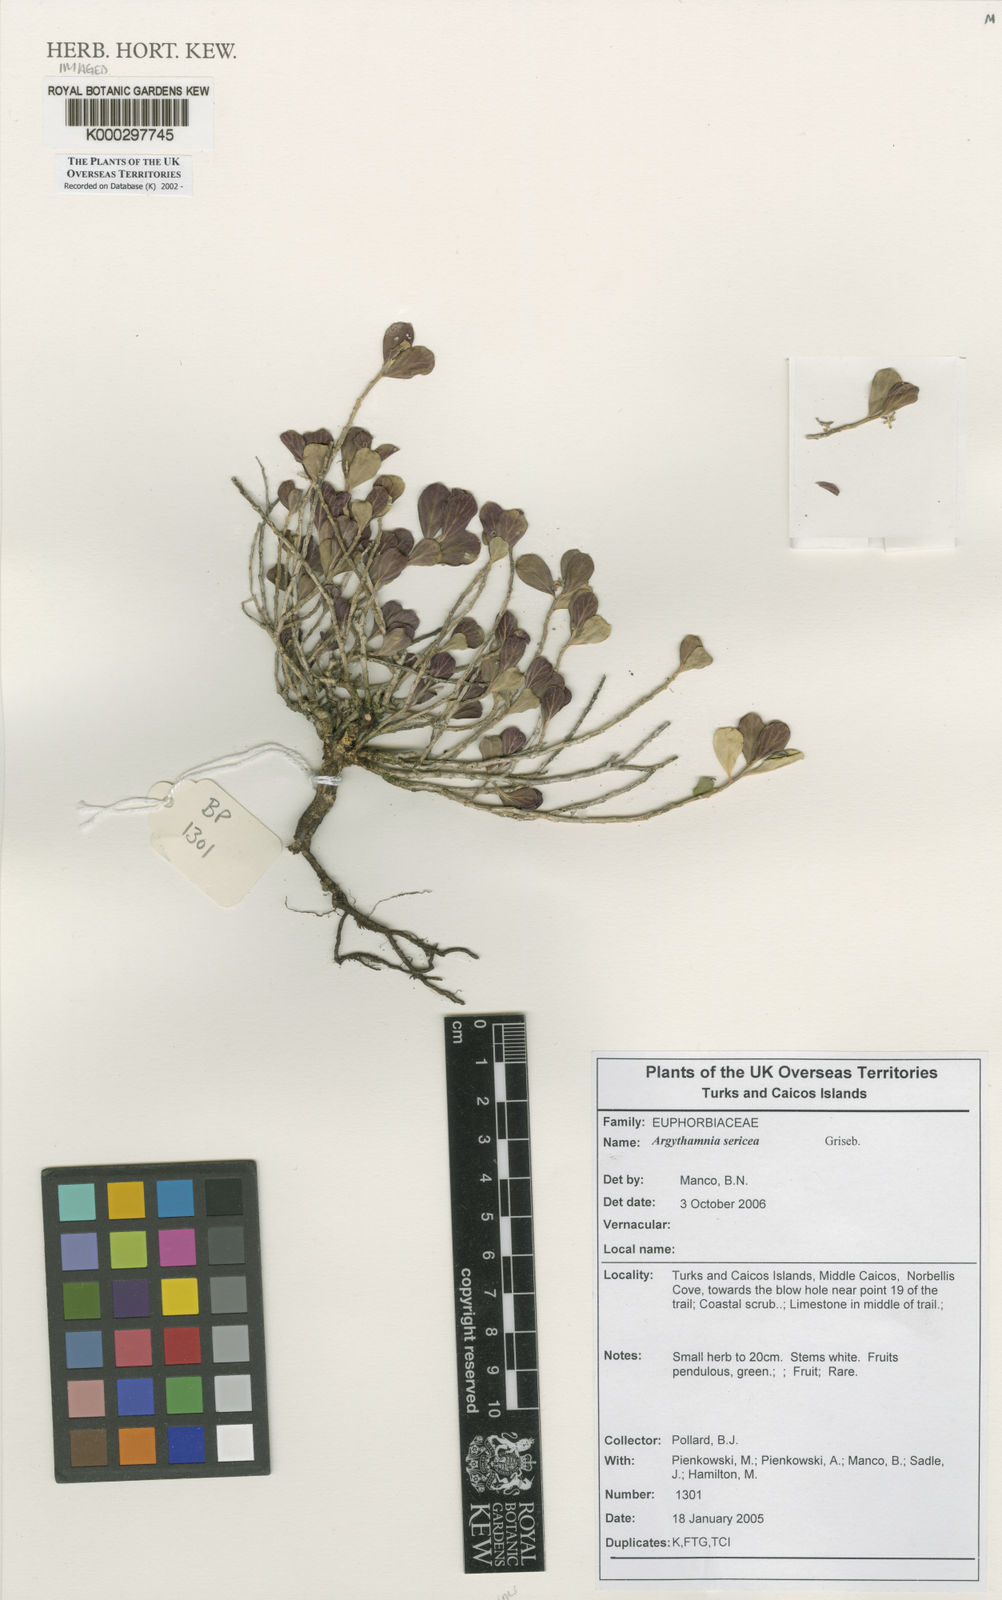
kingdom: Plantae
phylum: Tracheophyta
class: Magnoliopsida
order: Malpighiales
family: Euphorbiaceae
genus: Argythamnia
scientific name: Argythamnia sericea
